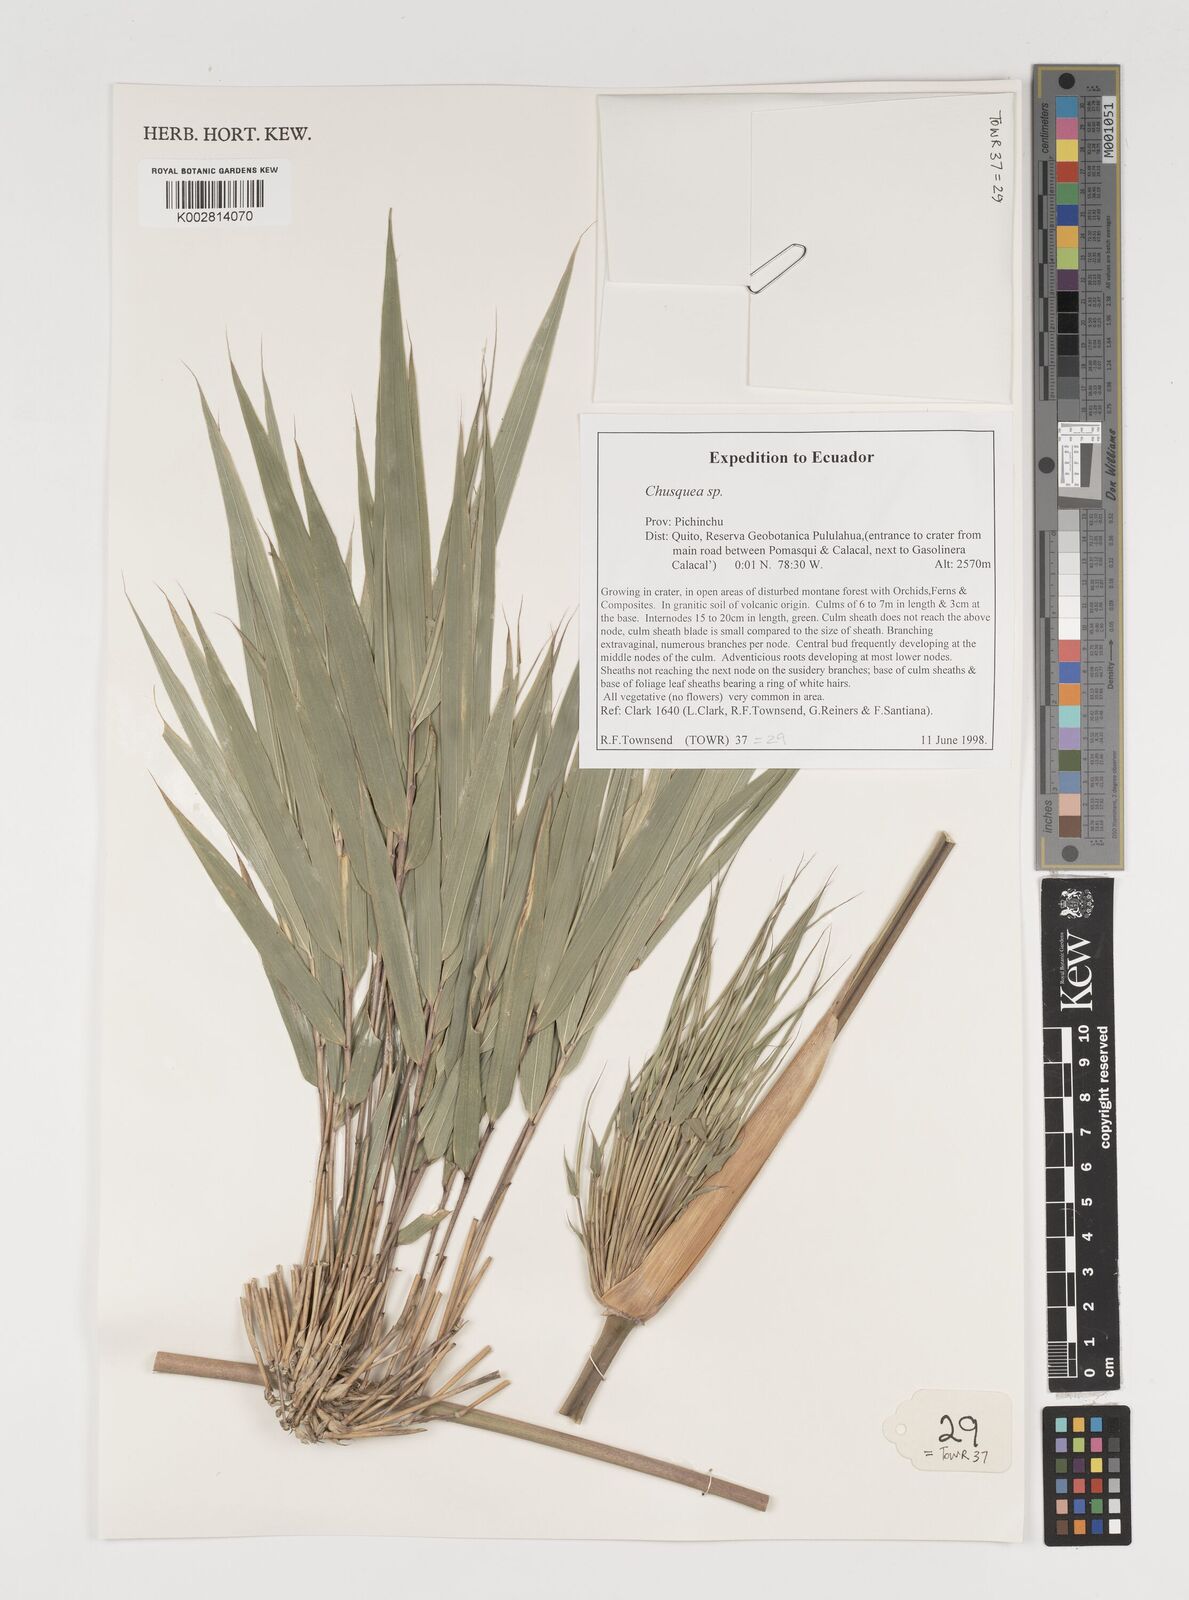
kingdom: Plantae
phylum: Tracheophyta
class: Liliopsida
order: Poales
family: Poaceae
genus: Chusquea
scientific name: Chusquea
